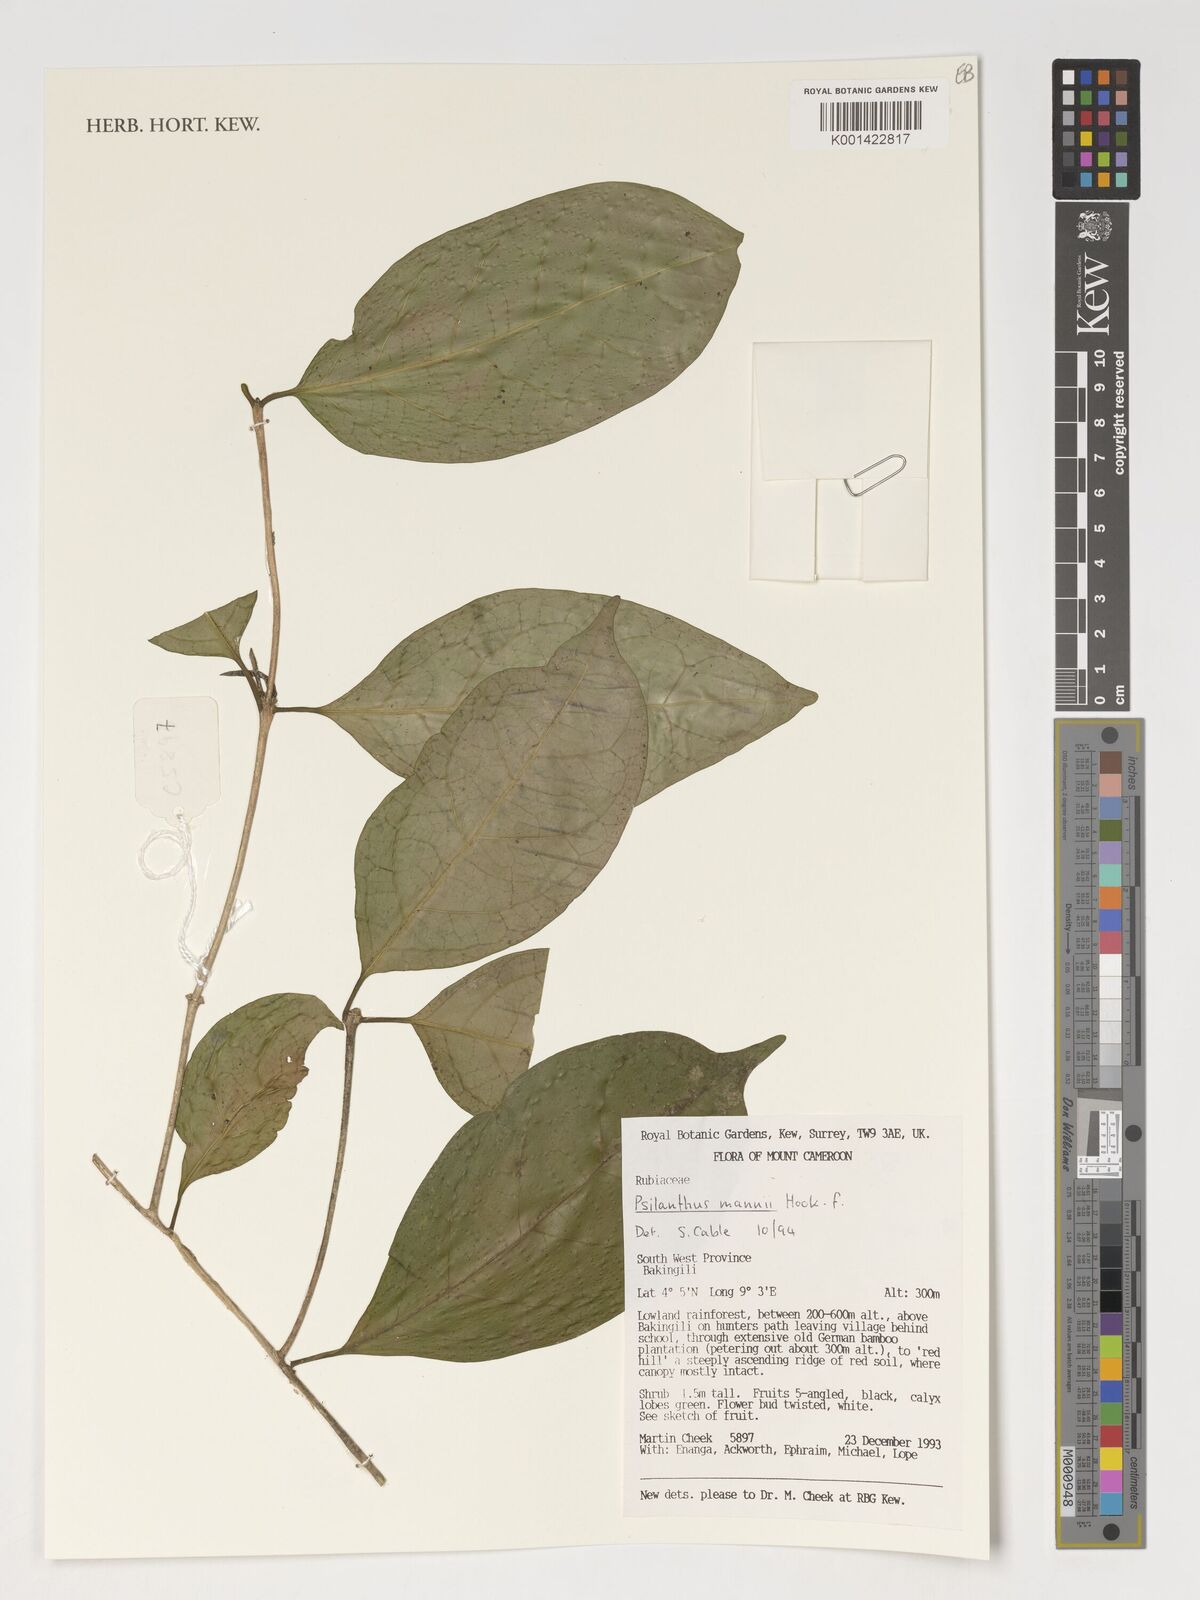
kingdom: Plantae
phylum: Tracheophyta
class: Magnoliopsida
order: Gentianales
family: Rubiaceae
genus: Coffea
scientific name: Coffea mannii
